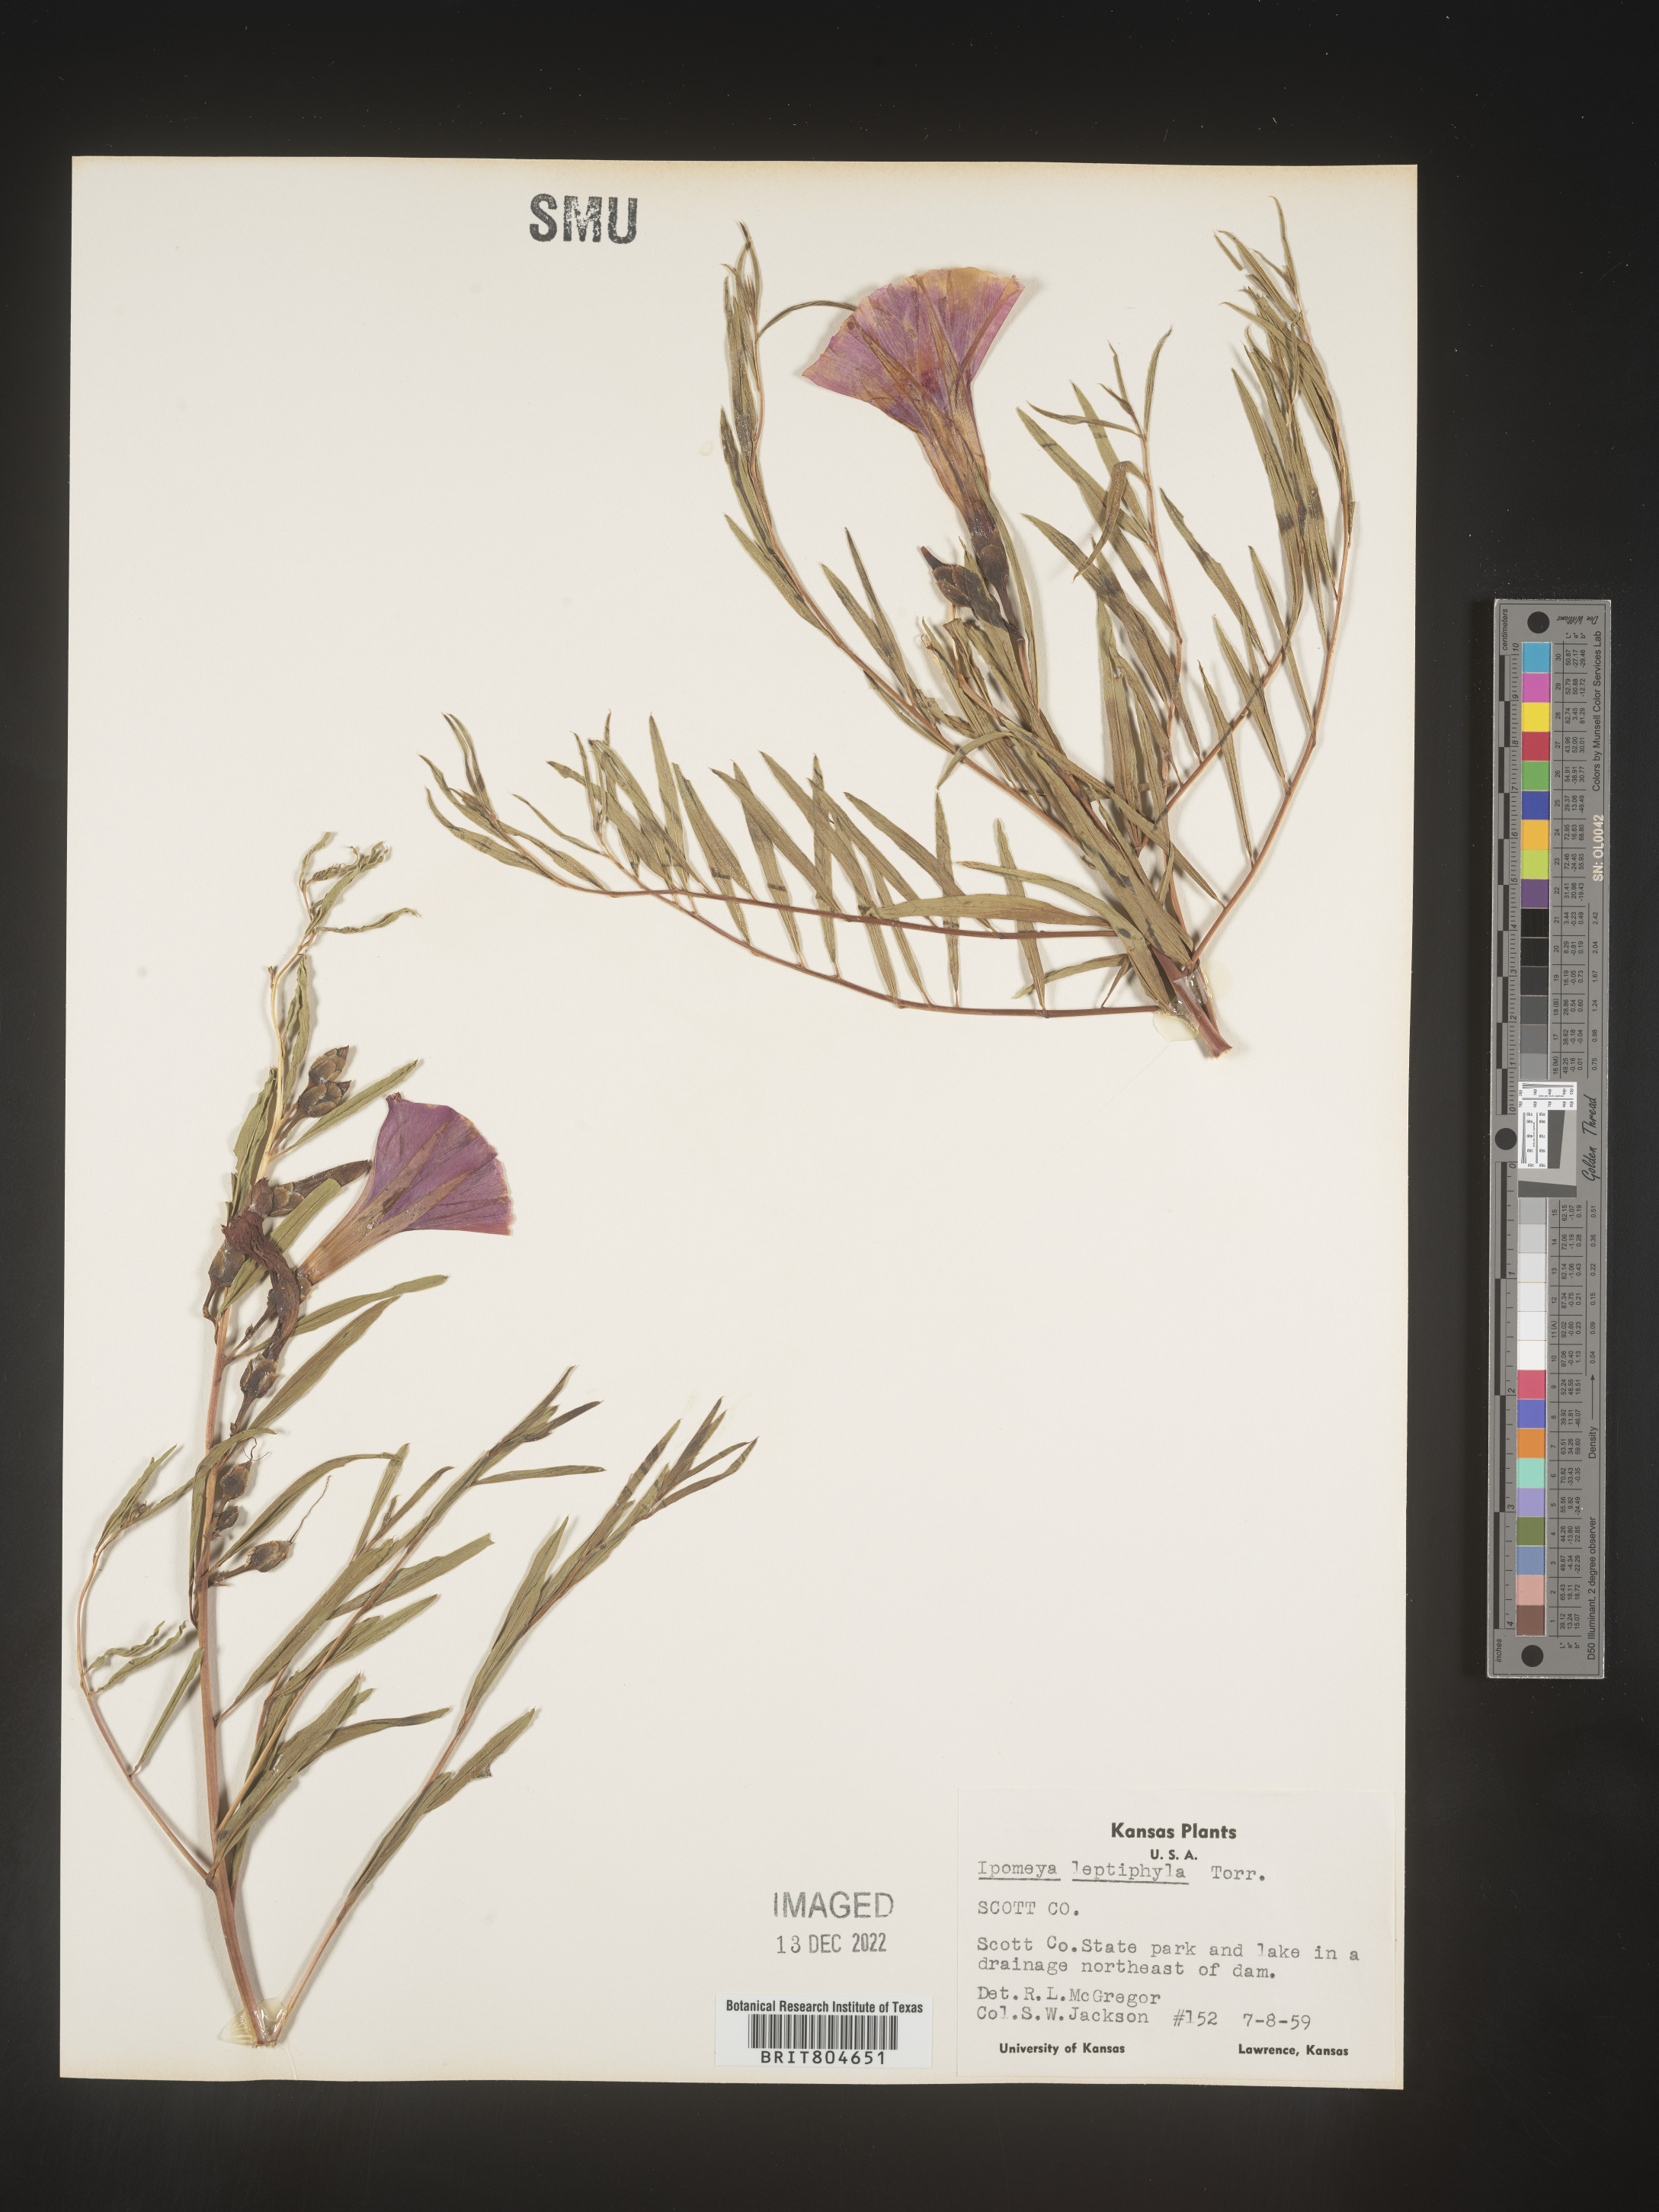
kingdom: Plantae
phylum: Tracheophyta
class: Magnoliopsida
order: Solanales
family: Convolvulaceae
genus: Ipomoea
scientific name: Ipomoea leptophylla
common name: Bush moonflower
